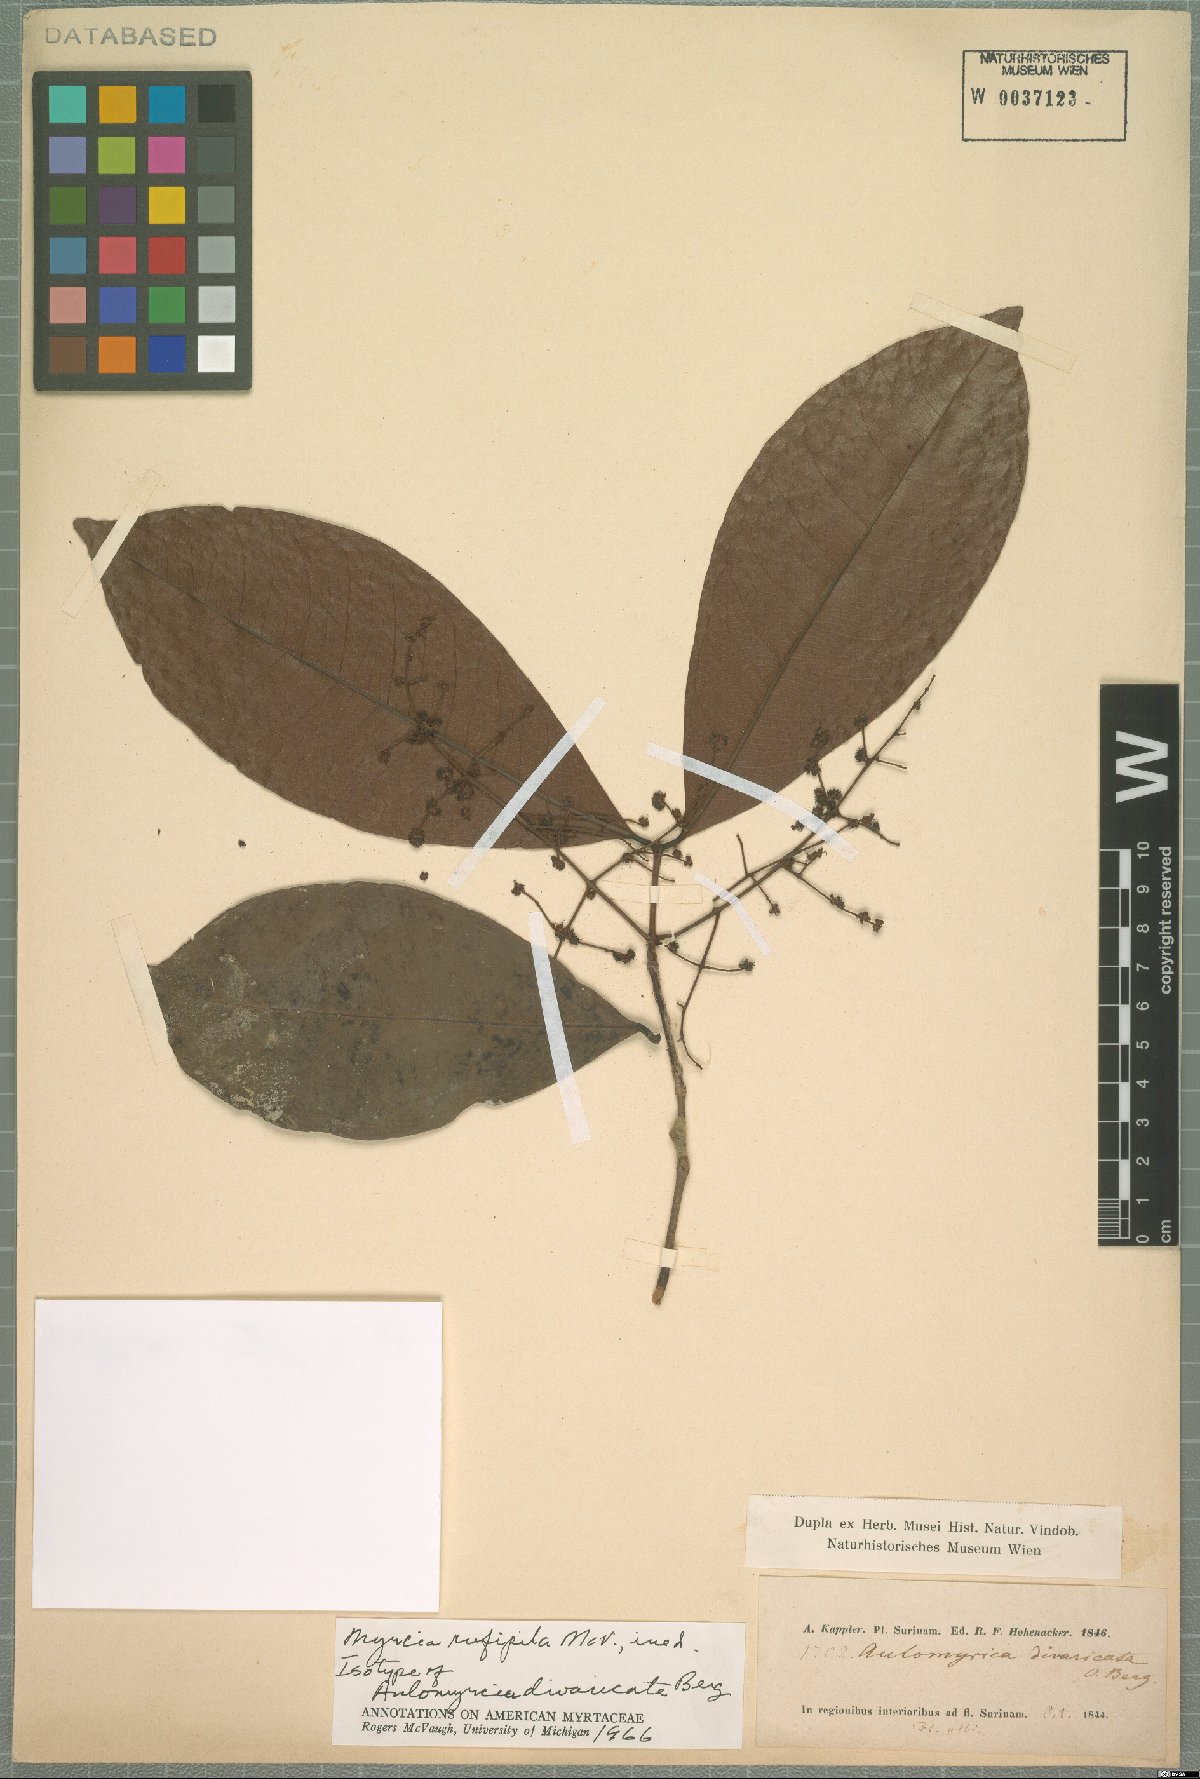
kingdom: Plantae
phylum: Tracheophyta
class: Magnoliopsida
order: Myrtales
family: Myrtaceae
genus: Myrcia
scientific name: Myrcia rufipila
